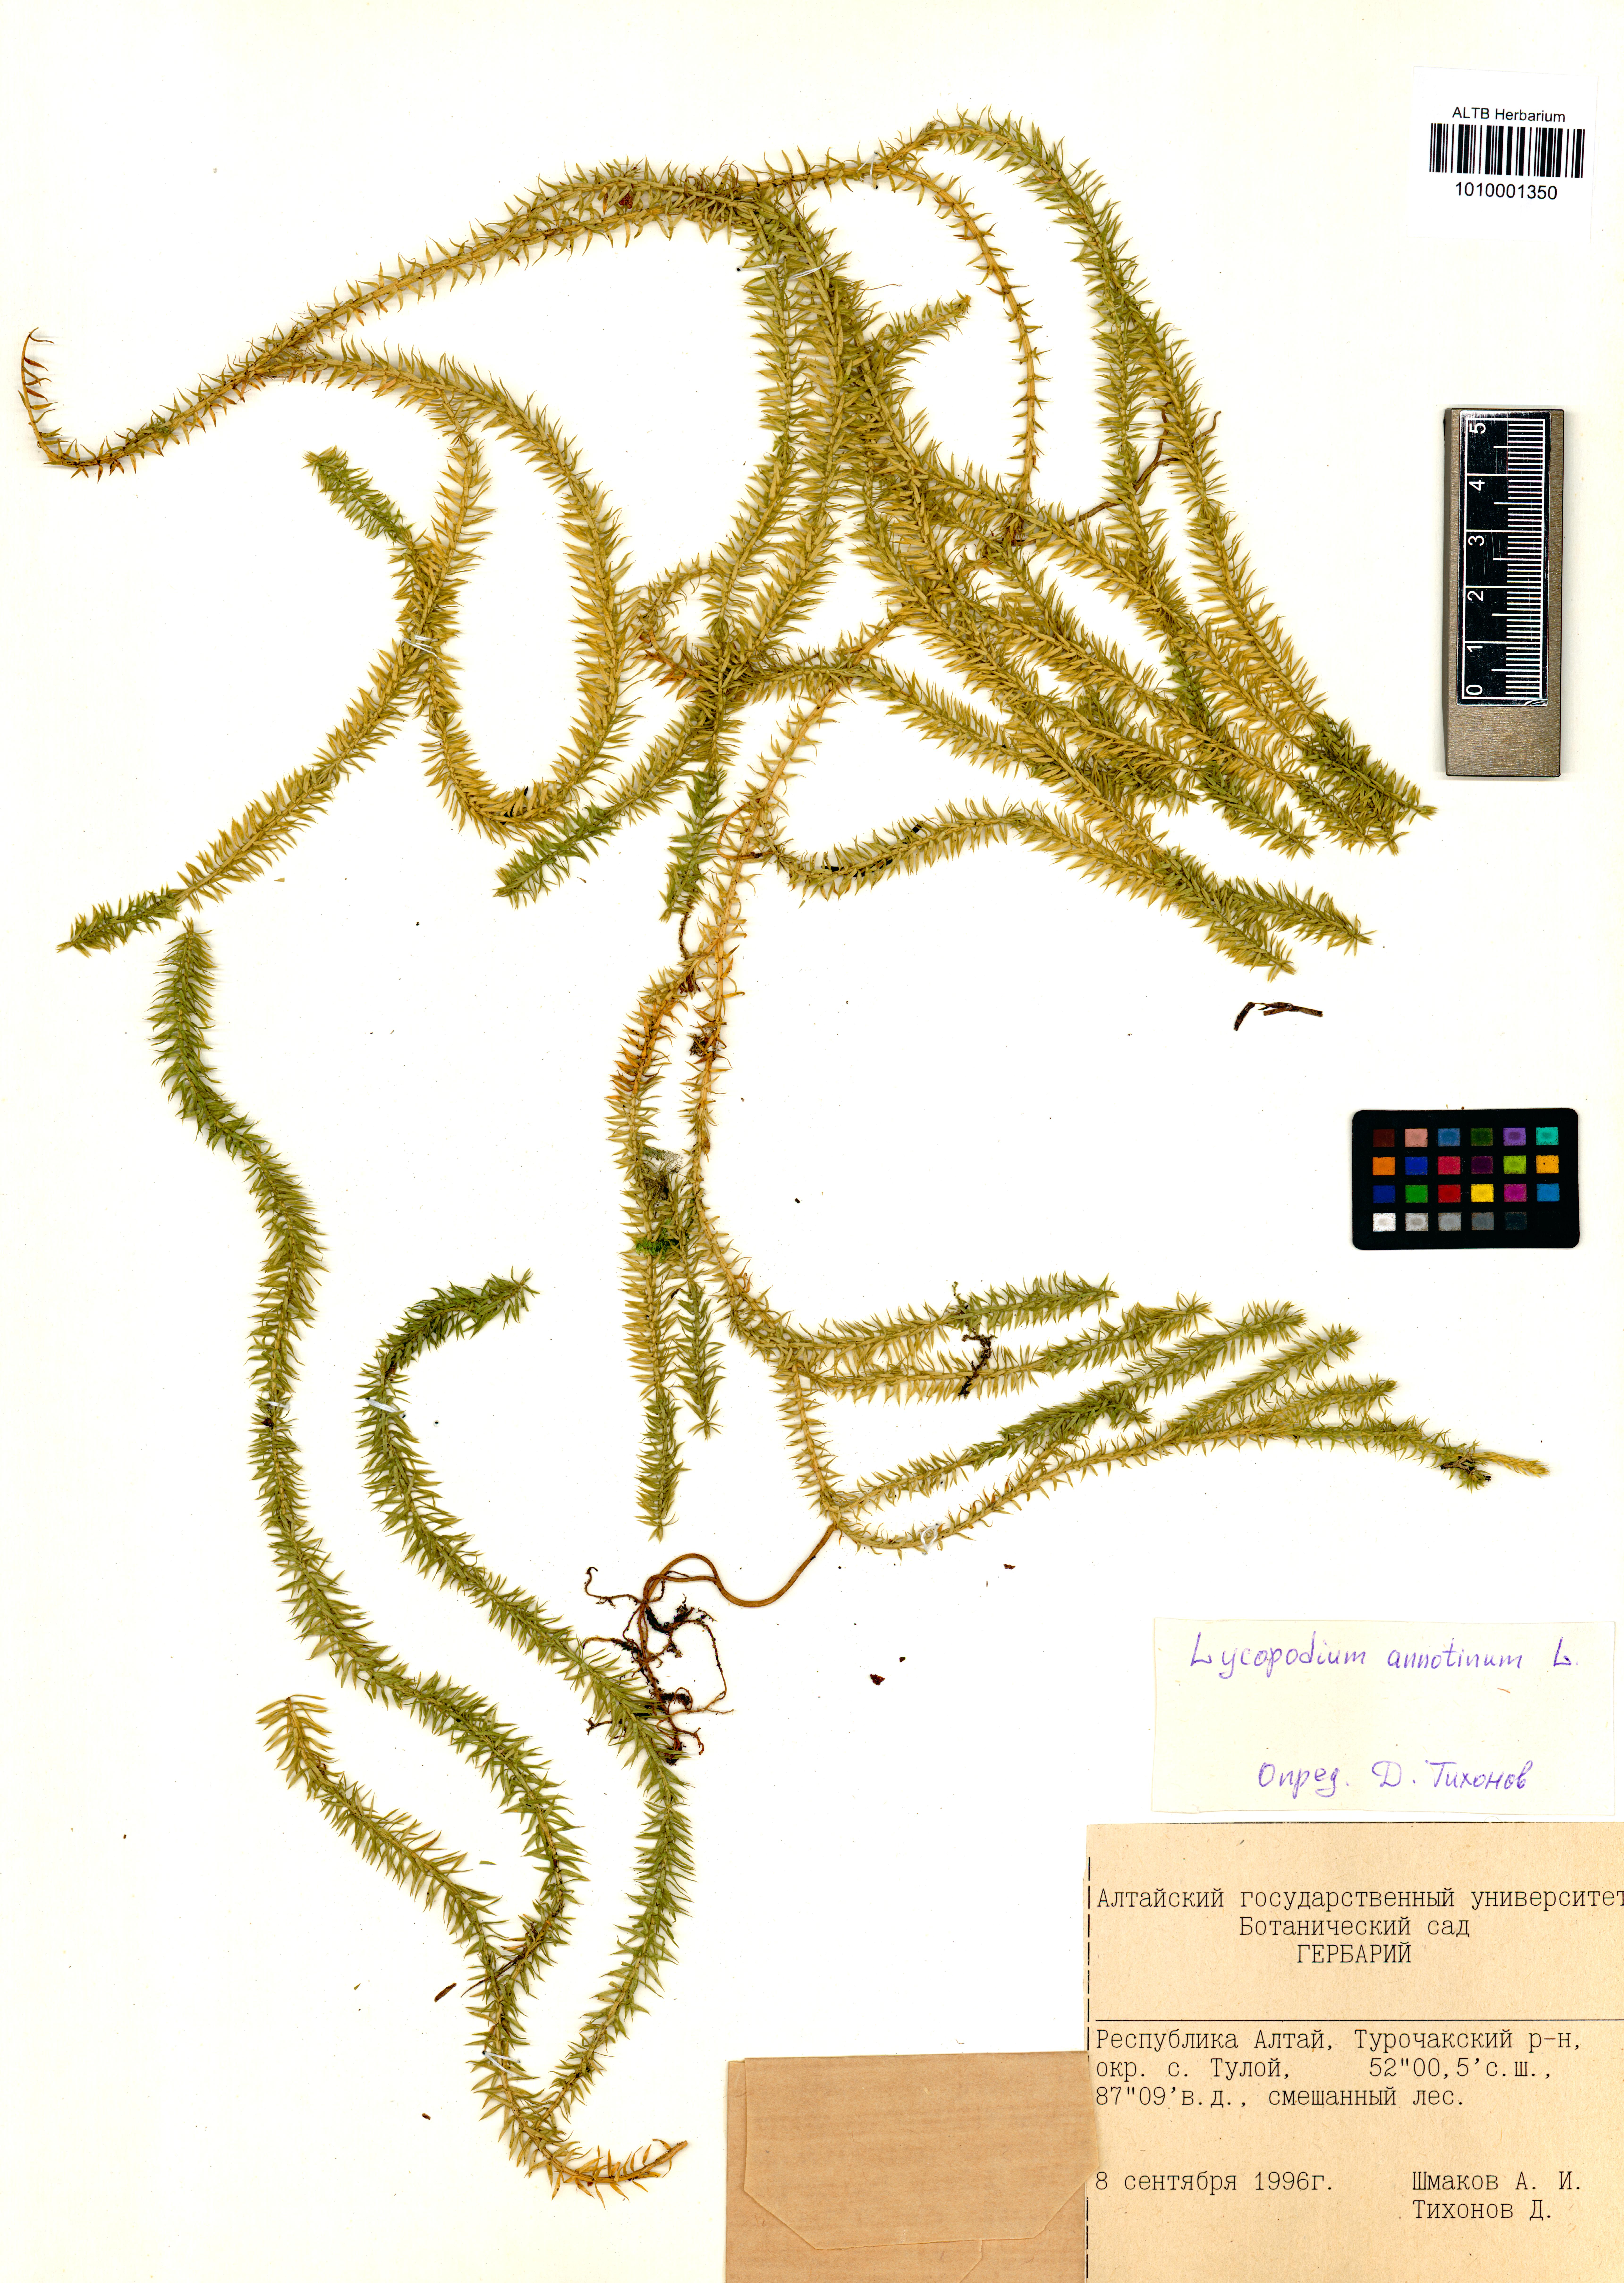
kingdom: Plantae
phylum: Tracheophyta
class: Lycopodiopsida
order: Lycopodiales
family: Lycopodiaceae
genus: Spinulum
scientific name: Spinulum annotinum
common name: Interrupted club-moss
